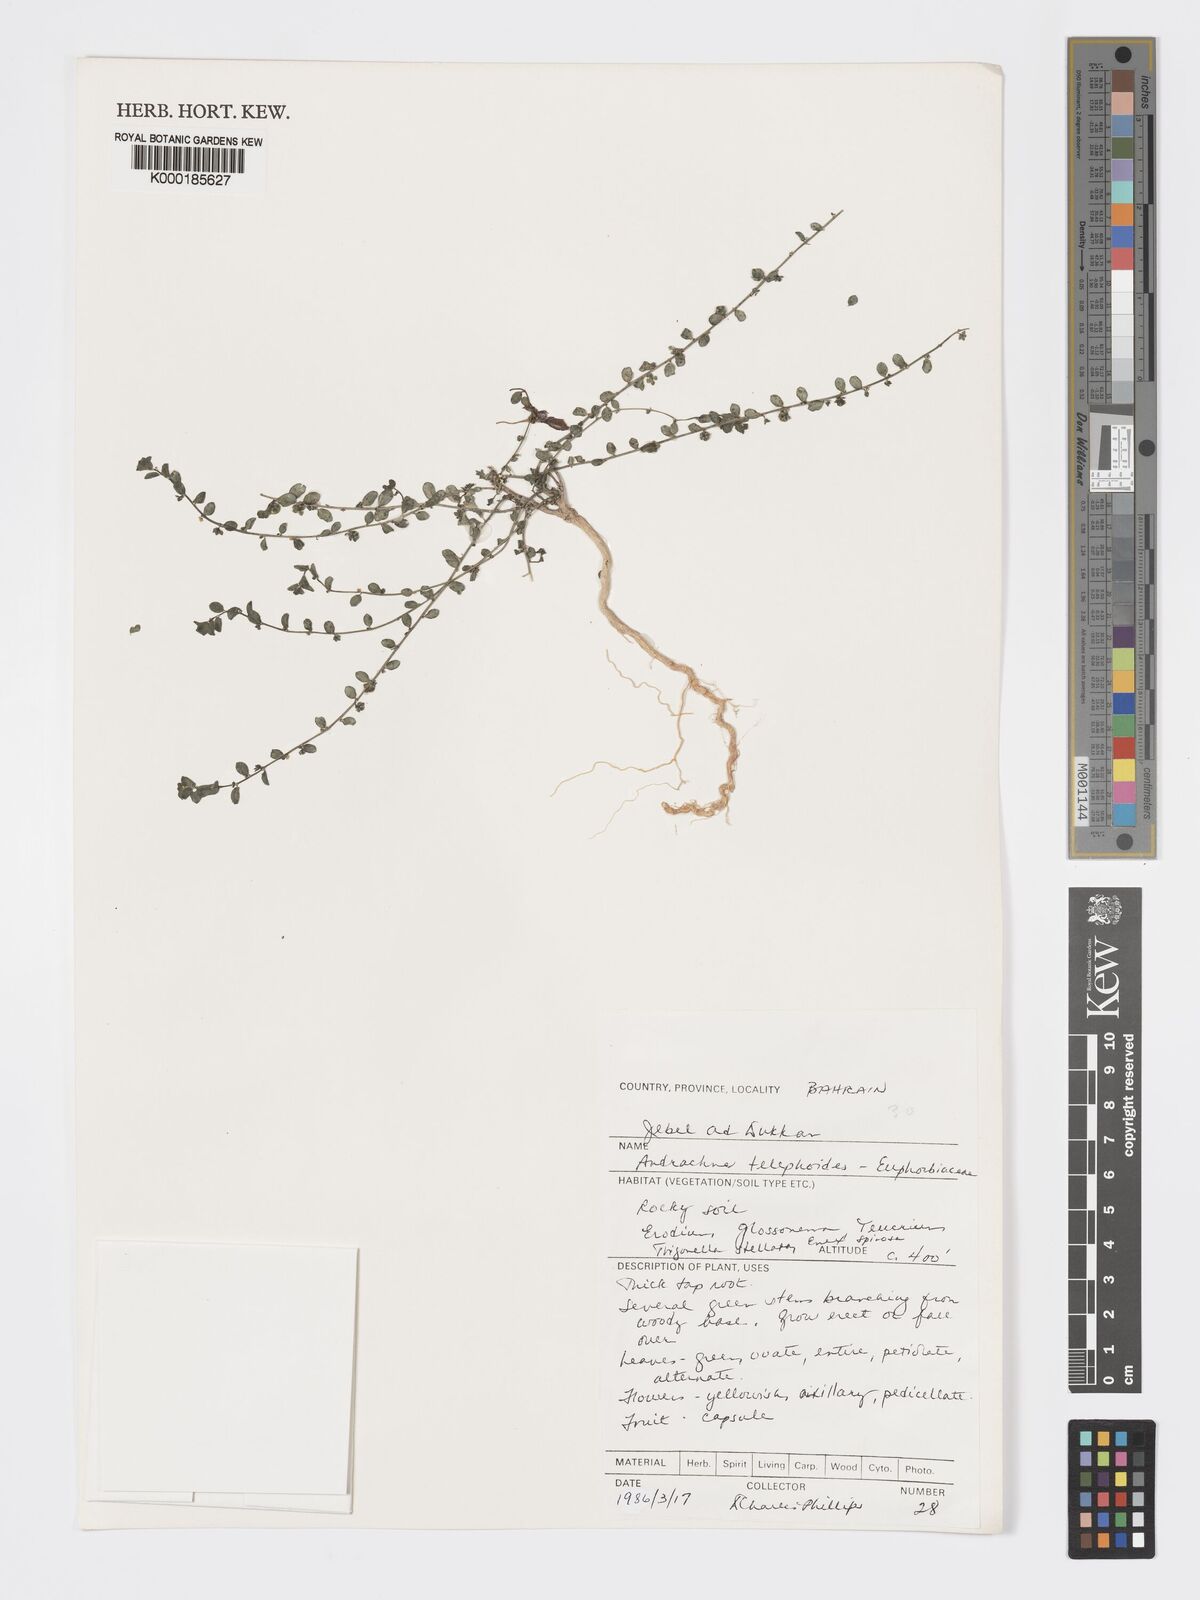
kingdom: Plantae
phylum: Tracheophyta
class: Magnoliopsida
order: Malpighiales
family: Phyllanthaceae
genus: Andrachne
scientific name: Andrachne telephioides
